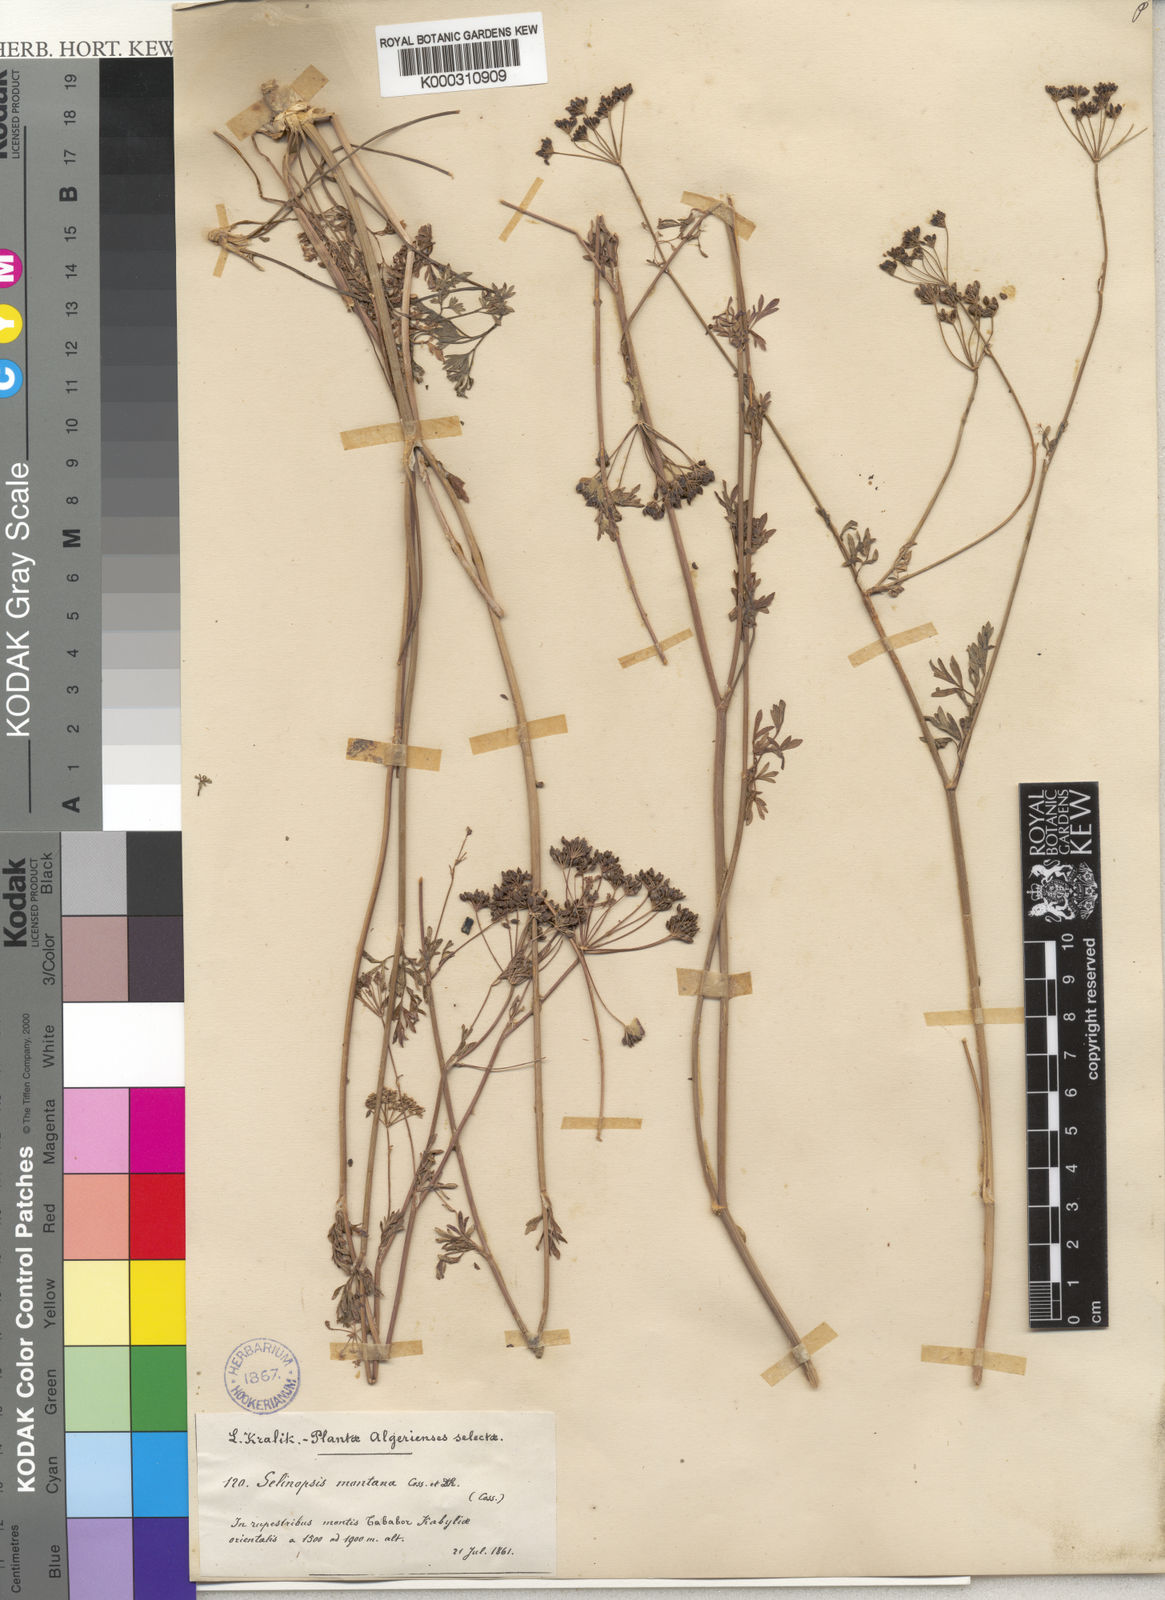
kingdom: Plantae
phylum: Tracheophyta
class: Magnoliopsida
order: Apiales
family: Apiaceae
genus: Perideridia
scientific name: Perideridia gairdneri
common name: False caraway
